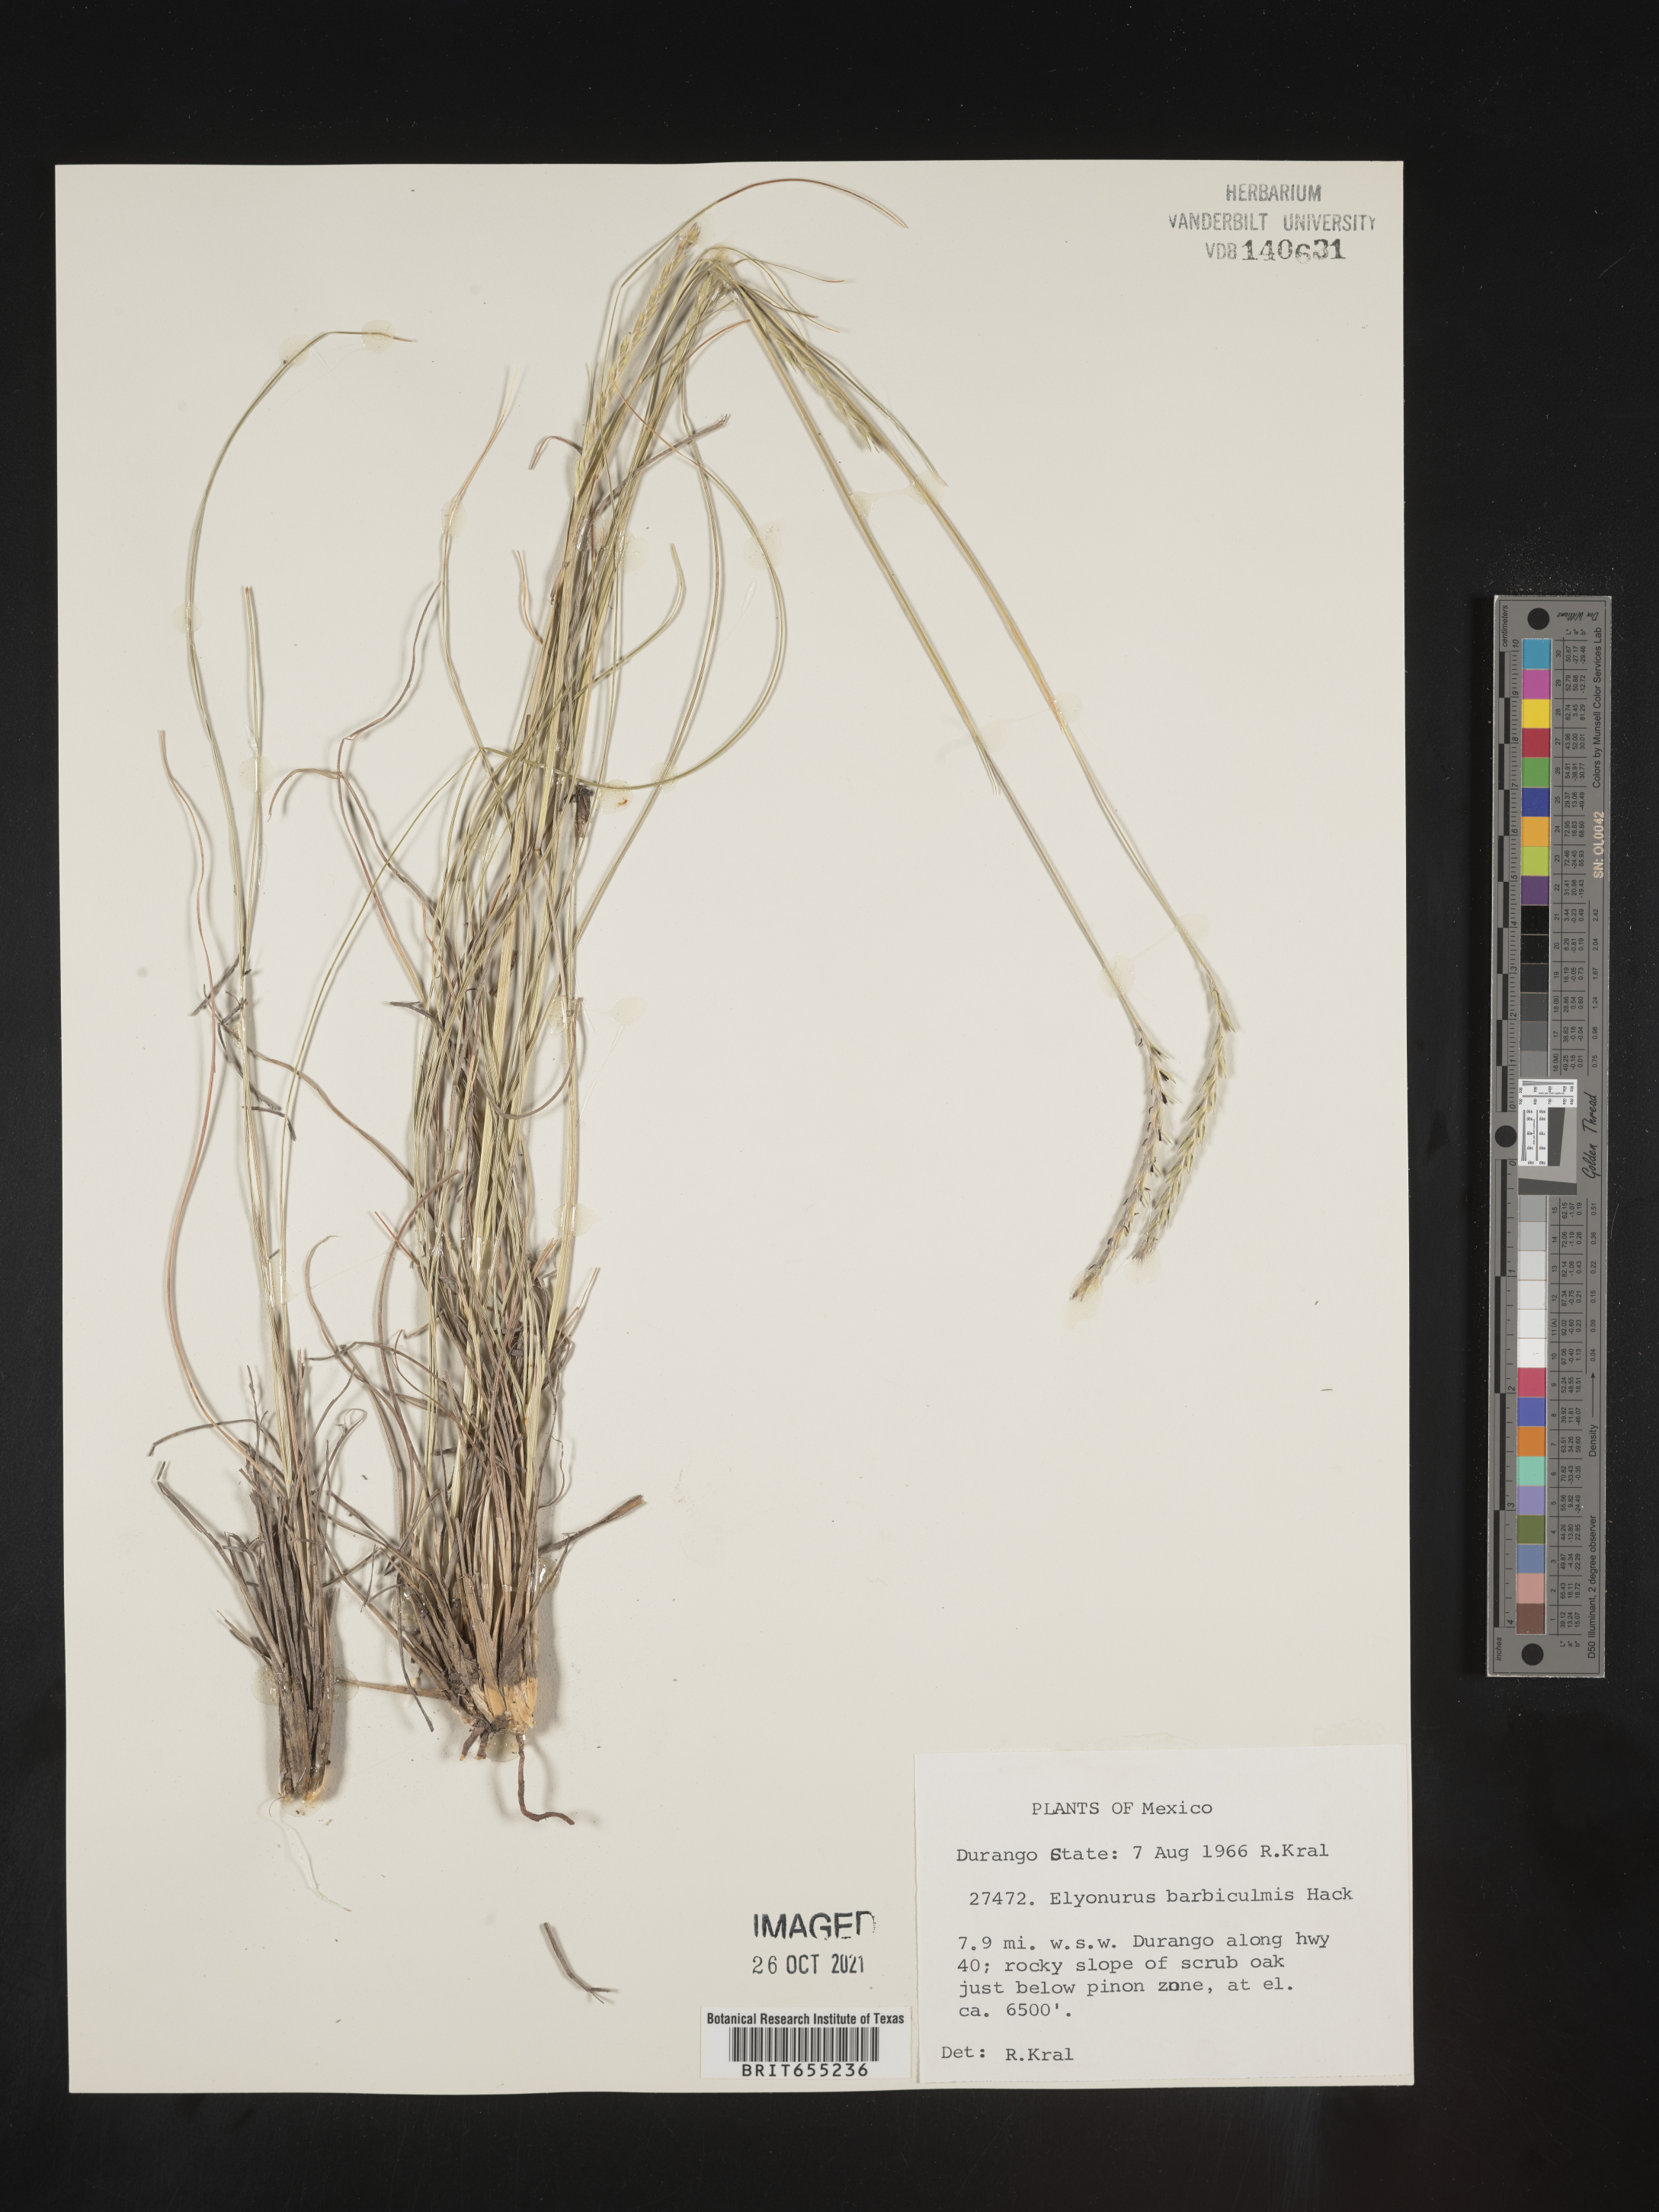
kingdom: Plantae
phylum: Tracheophyta
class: Liliopsida
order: Poales
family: Poaceae
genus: Elionurus
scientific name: Elionurus
